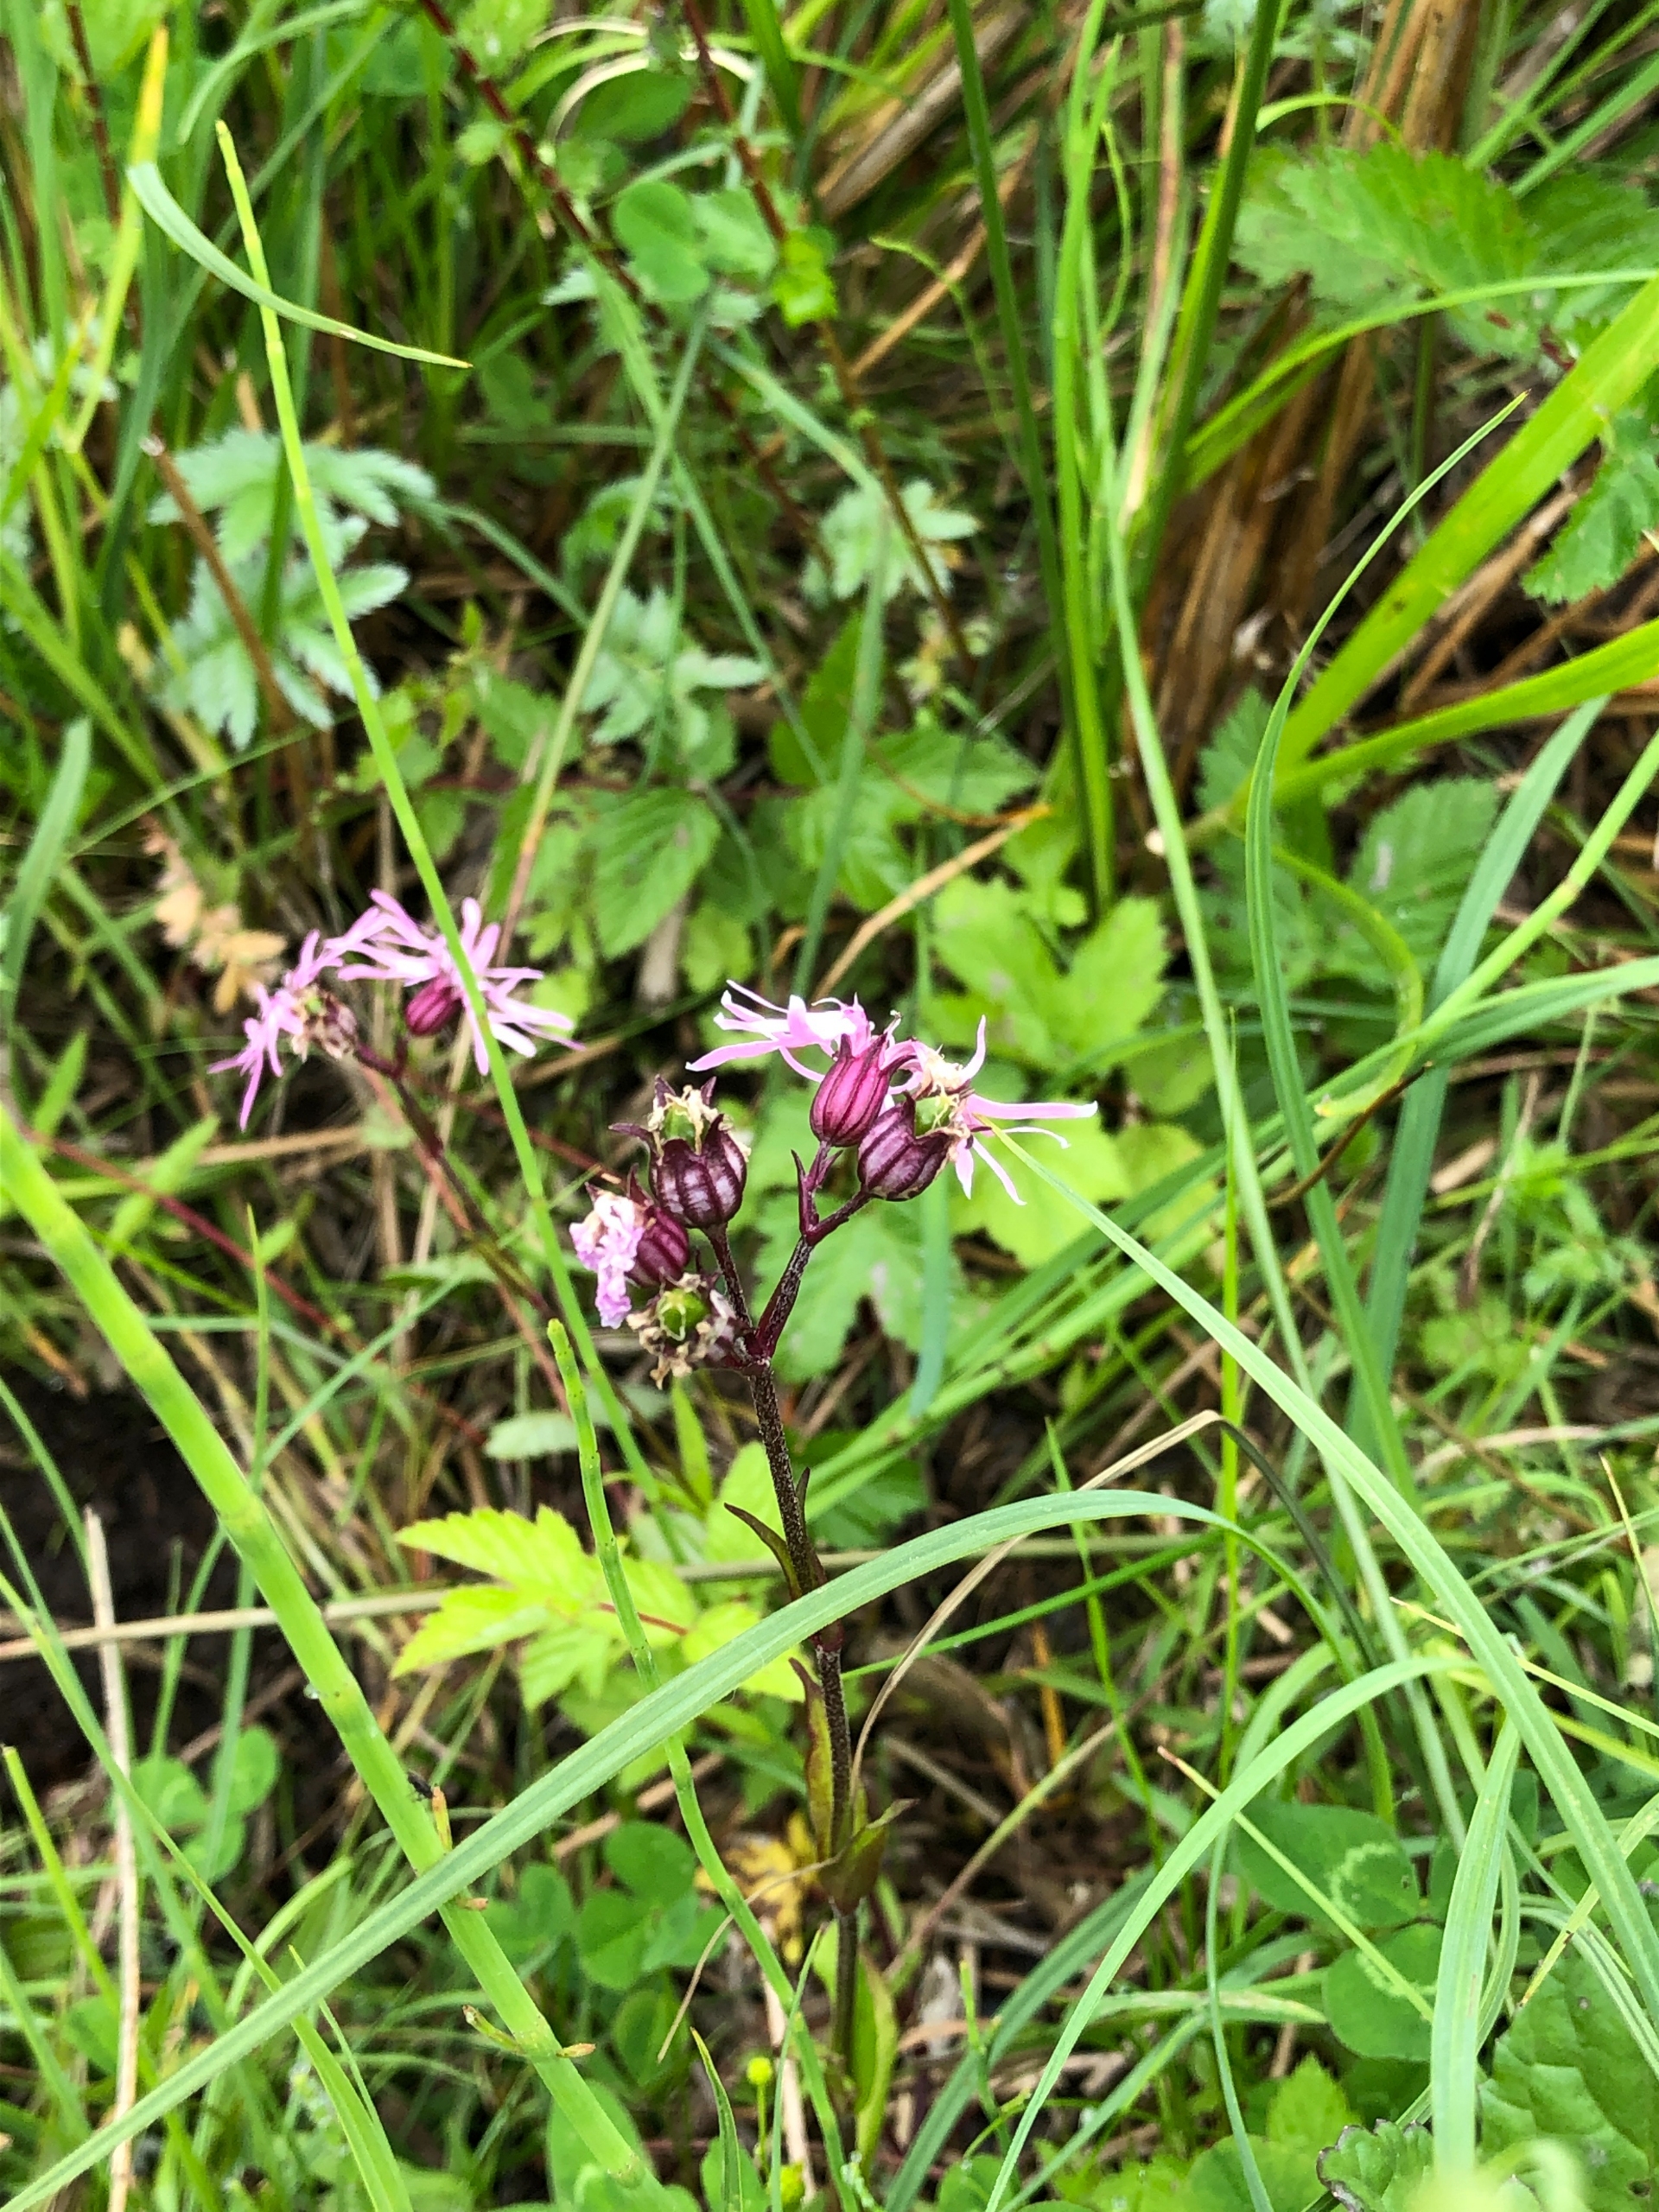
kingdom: Plantae
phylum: Tracheophyta
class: Magnoliopsida
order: Caryophyllales
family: Caryophyllaceae
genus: Silene
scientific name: Silene flos-cuculi
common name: Trævlekrone
